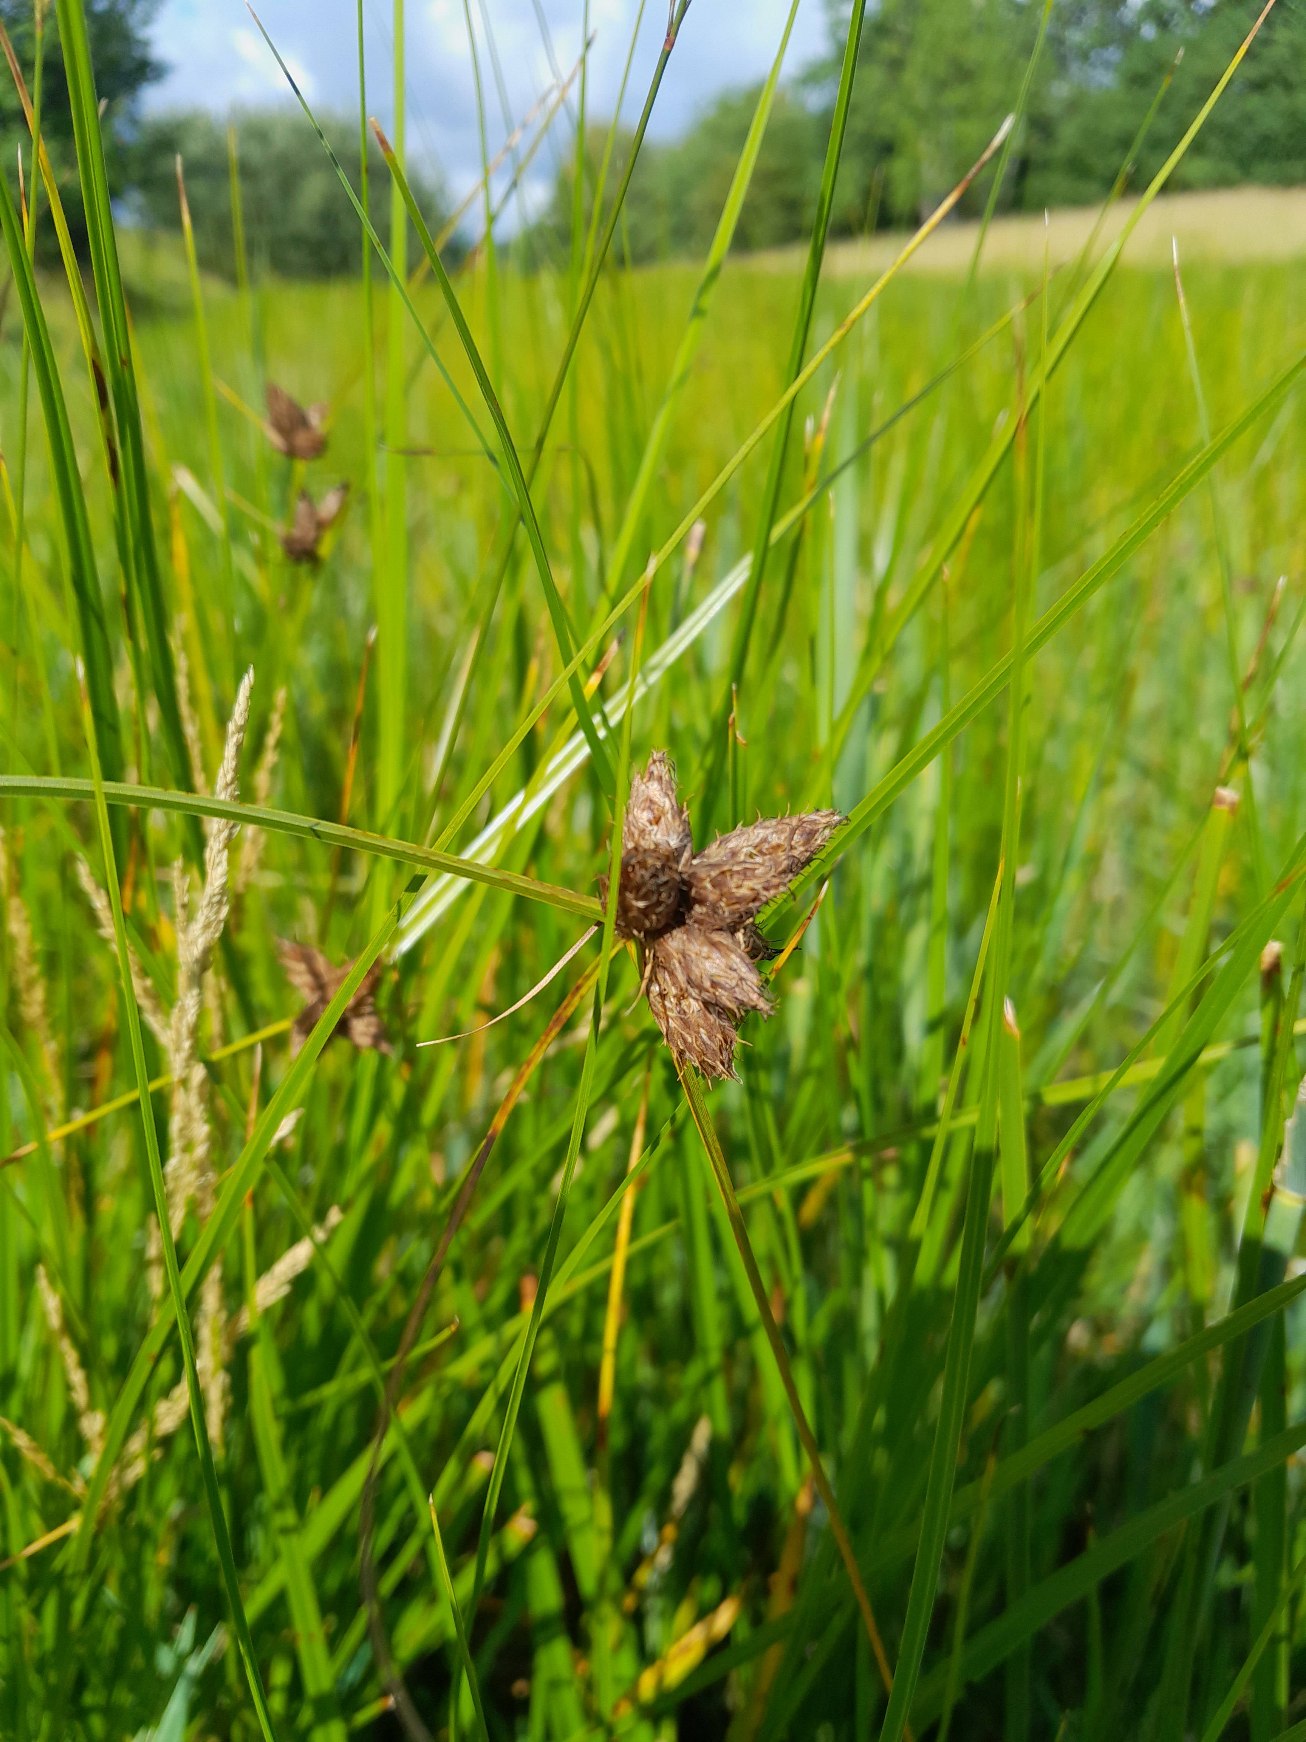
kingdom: Plantae
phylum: Tracheophyta
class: Liliopsida
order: Poales
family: Cyperaceae
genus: Bolboschoenus
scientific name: Bolboschoenus maritimus
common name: Strand-kogleaks
